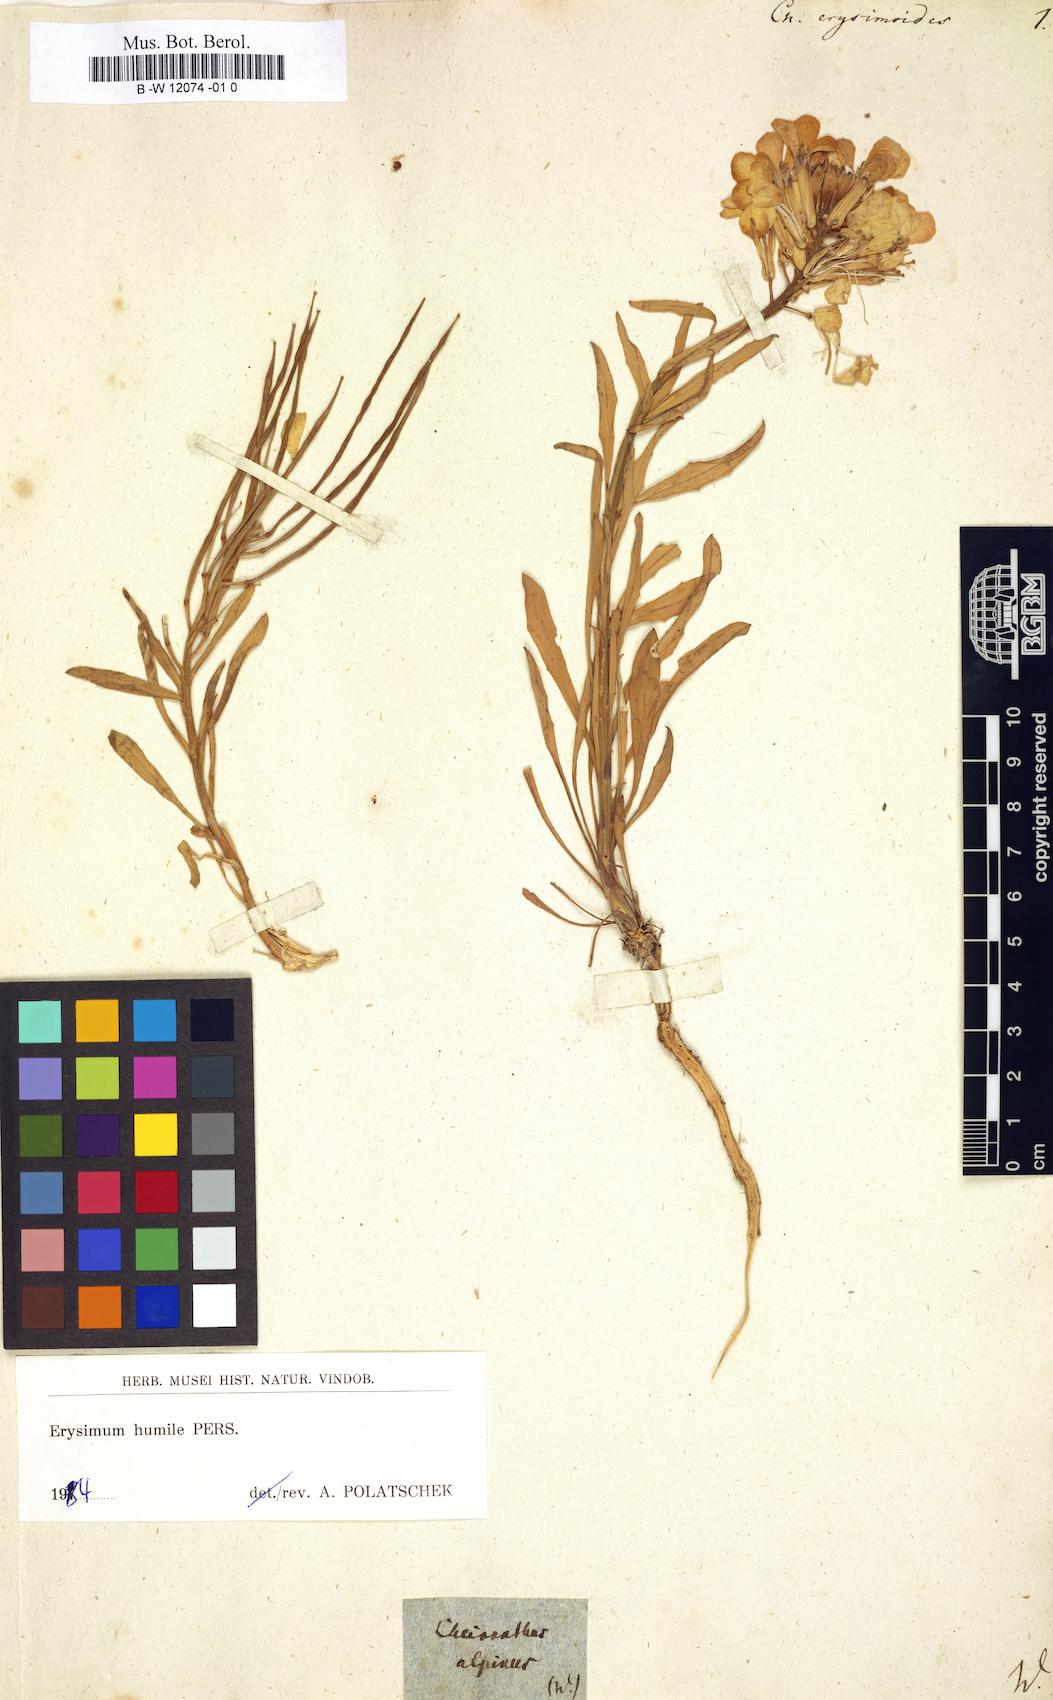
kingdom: Plantae
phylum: Tracheophyta
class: Magnoliopsida
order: Brassicales
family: Brassicaceae
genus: Erysimum
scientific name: Erysimum
